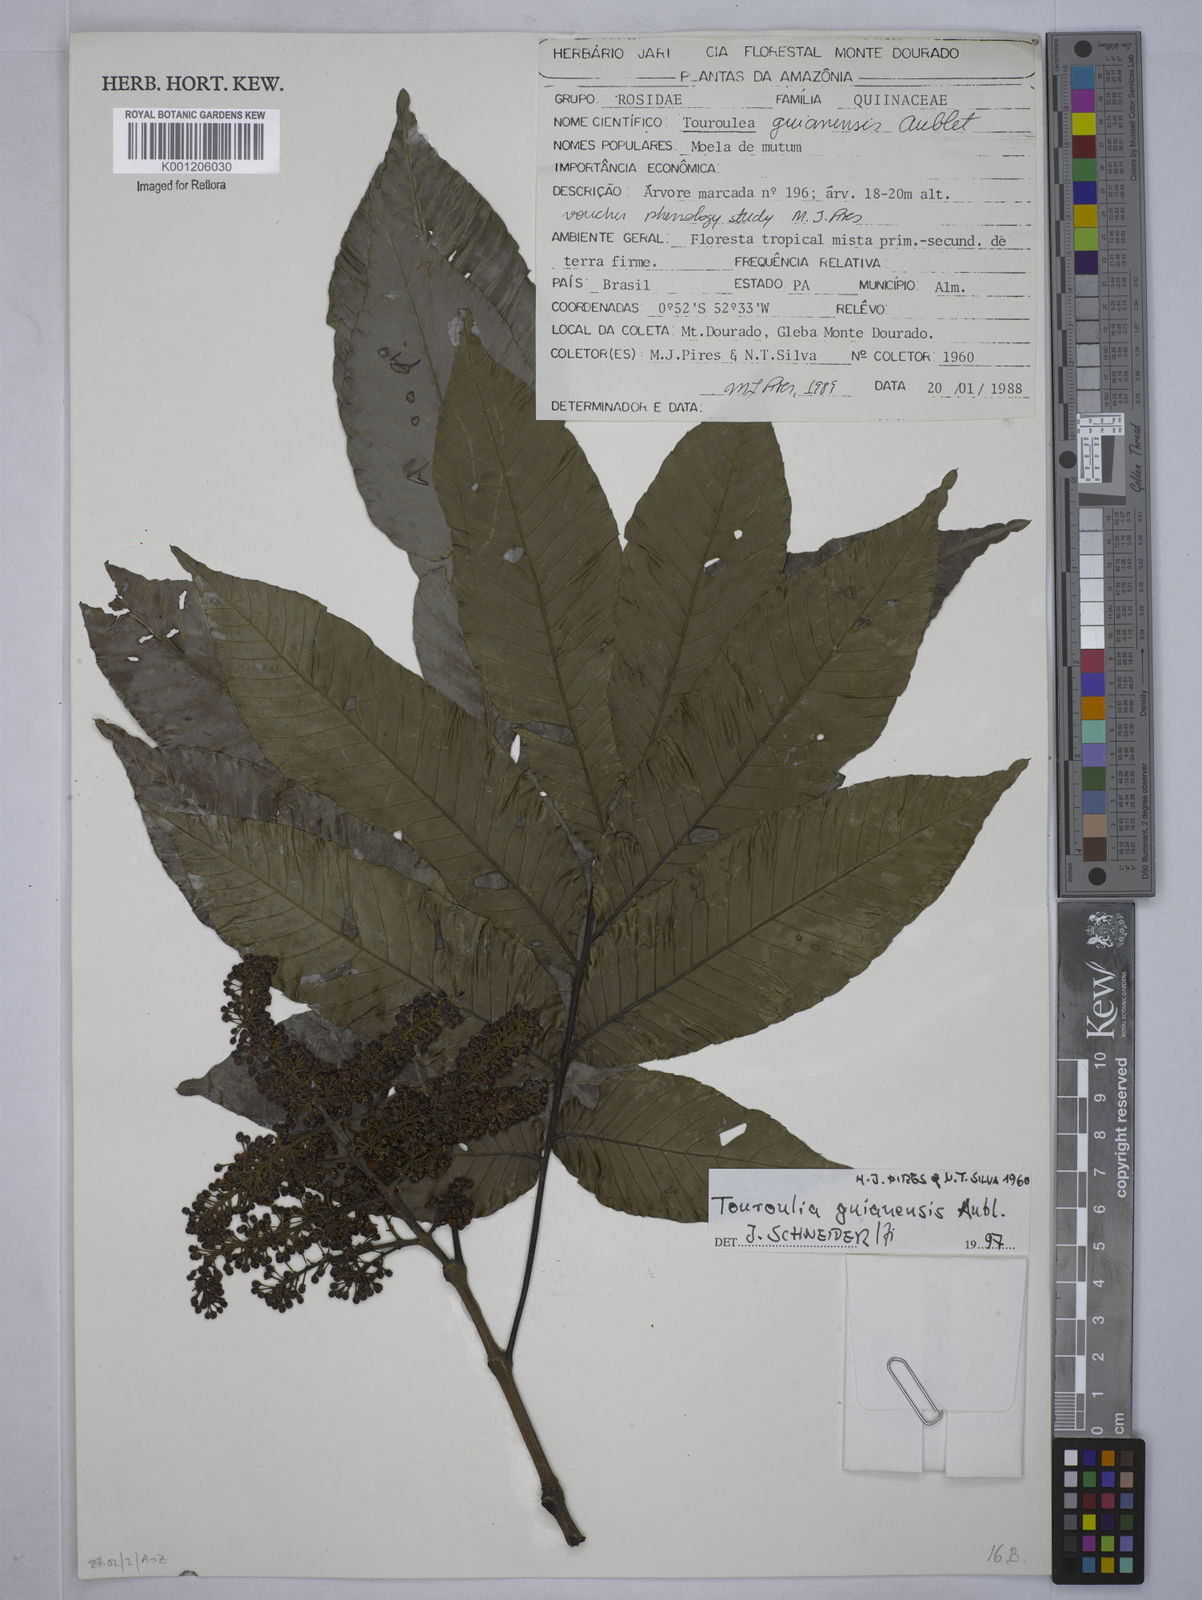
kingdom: Plantae
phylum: Tracheophyta
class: Magnoliopsida
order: Malpighiales
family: Quiinaceae
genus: Touroulia
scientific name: Touroulia guianensis
